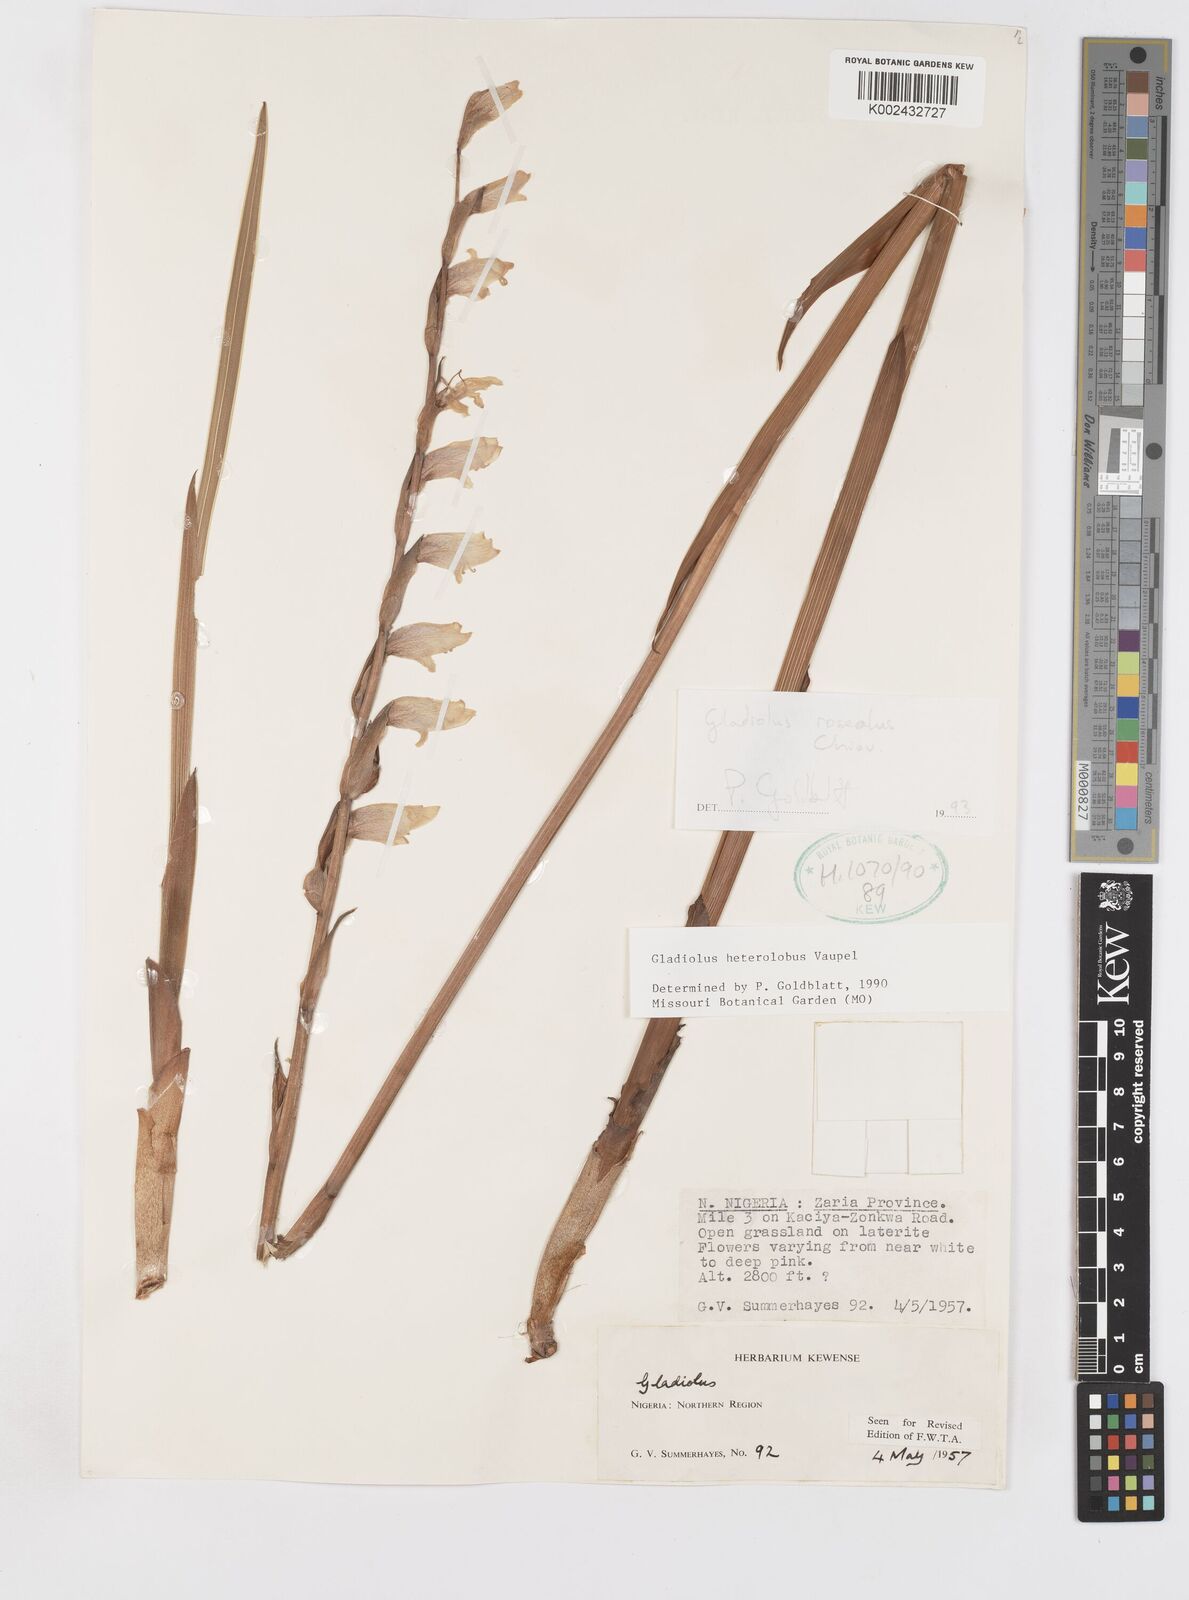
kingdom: Plantae
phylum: Tracheophyta
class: Liliopsida
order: Asparagales
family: Iridaceae
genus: Gladiolus
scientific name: Gladiolus roseolus
